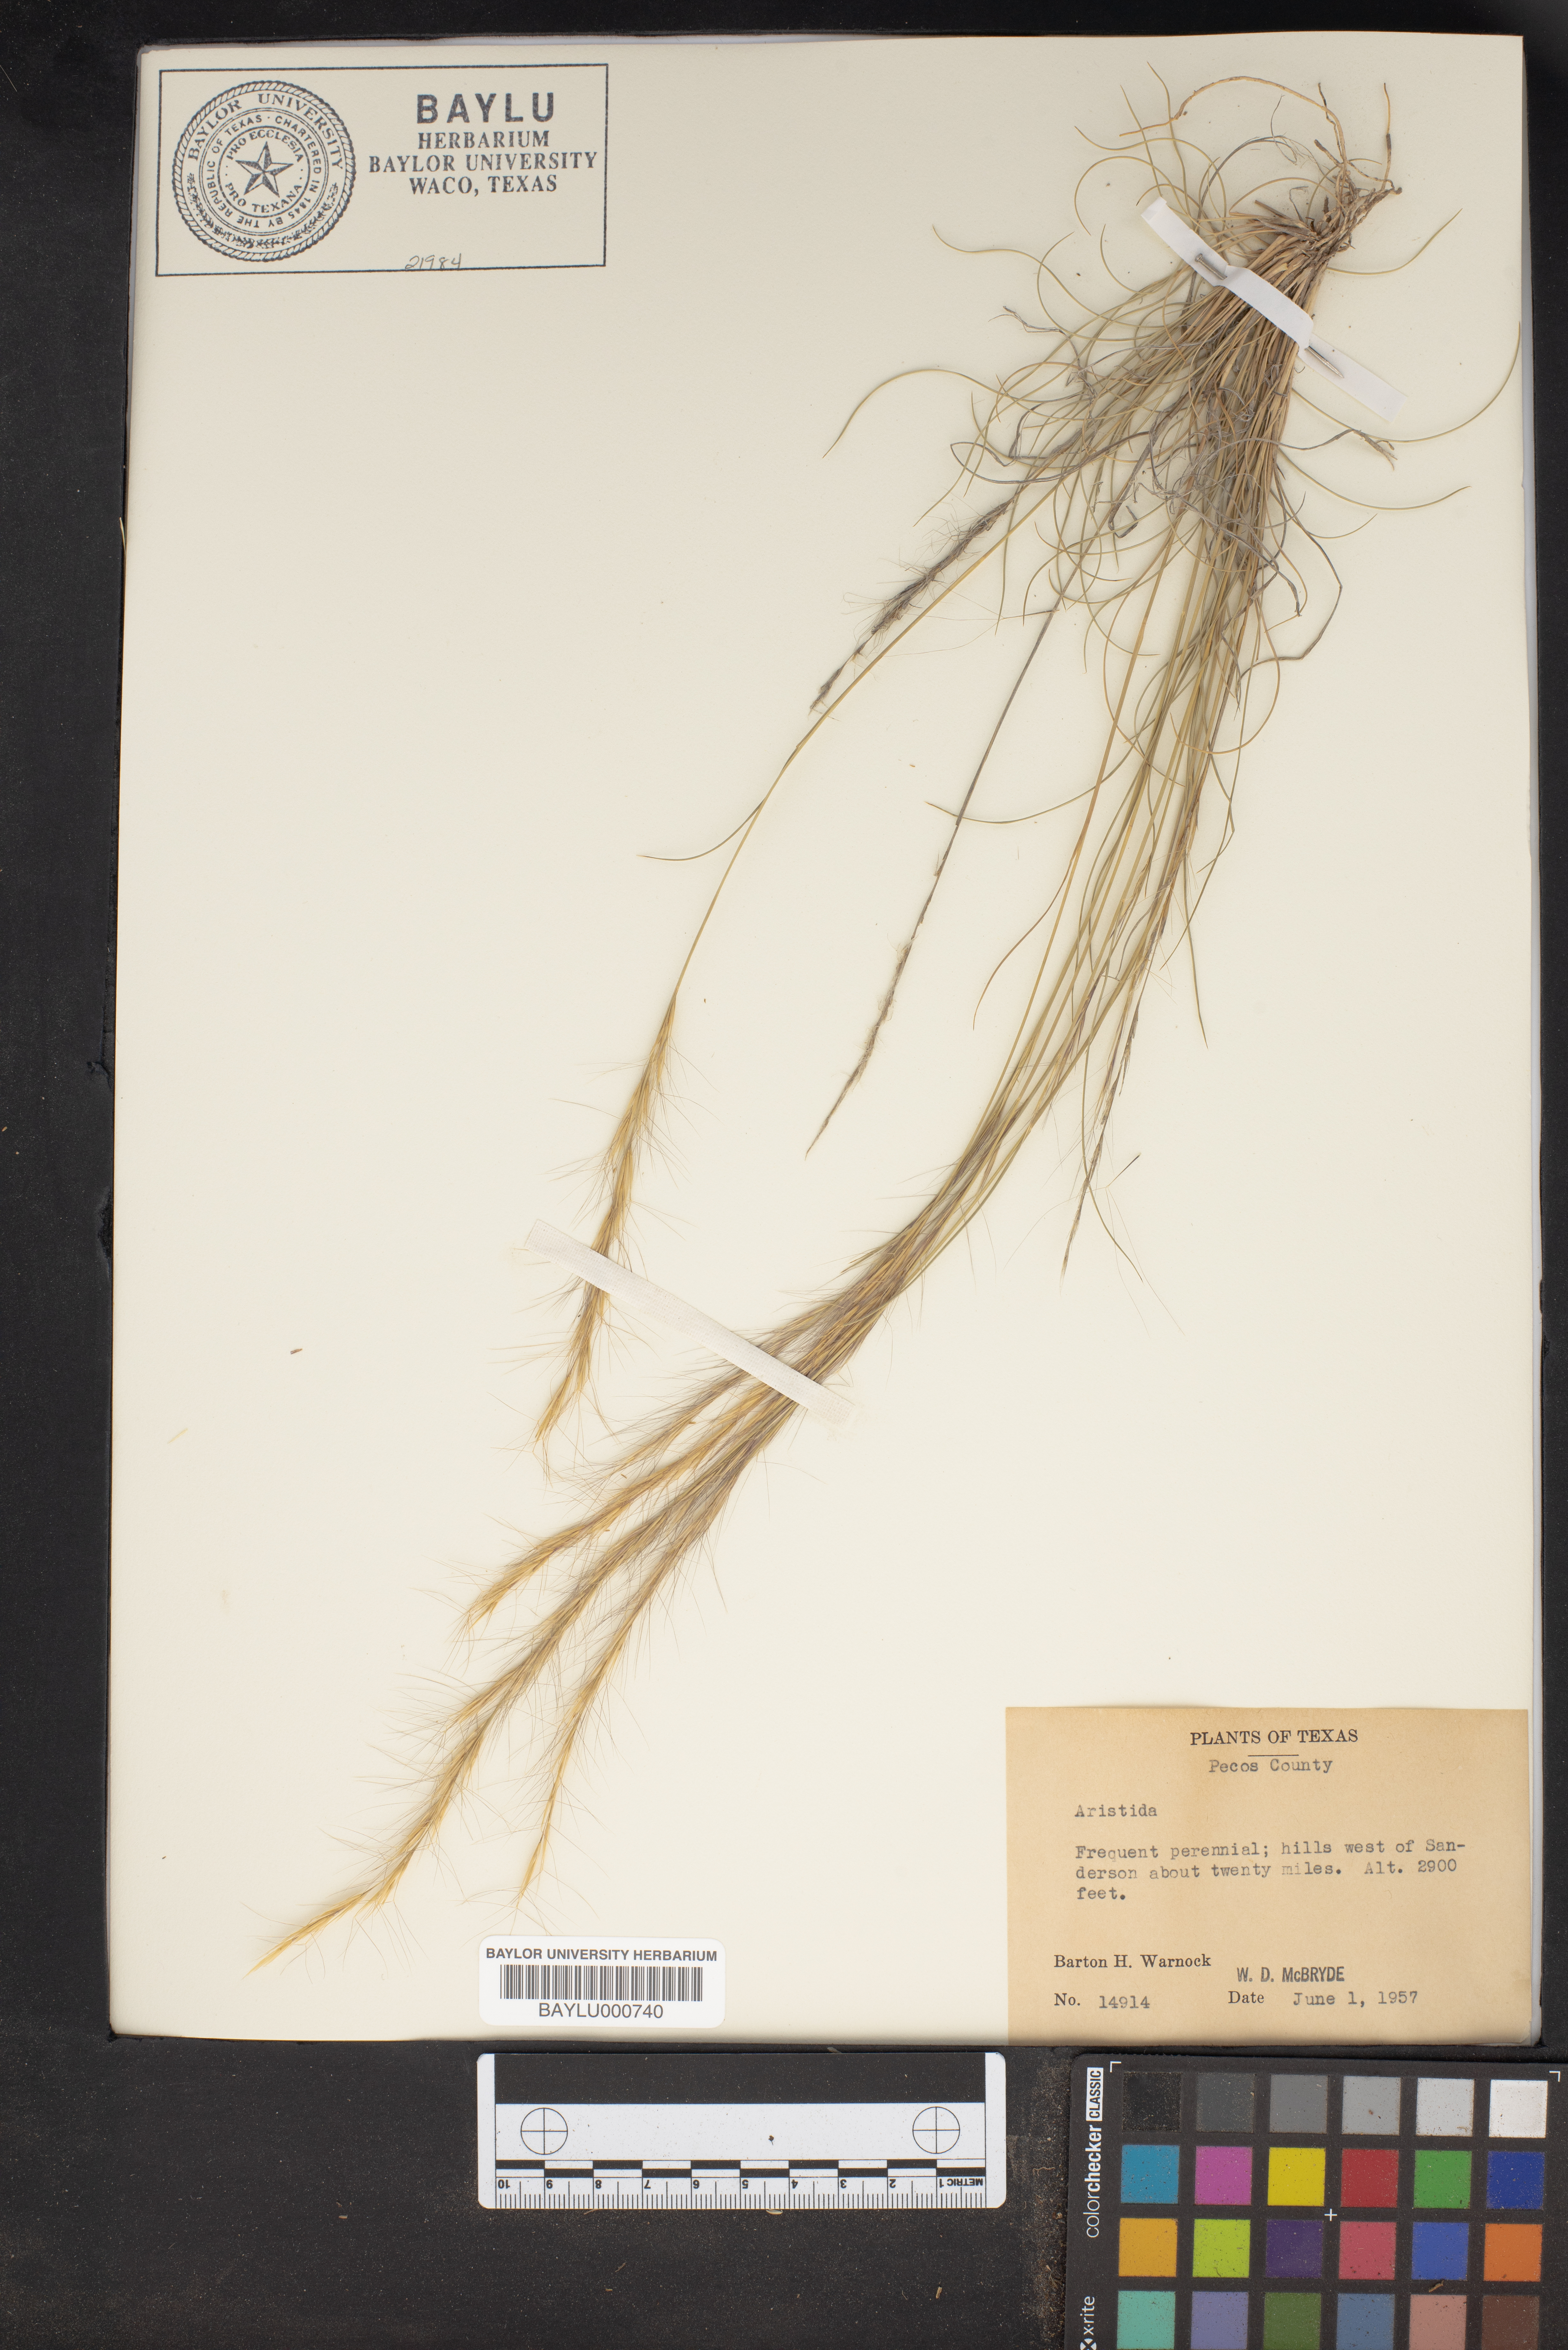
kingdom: Plantae
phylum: Tracheophyta
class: Liliopsida
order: Poales
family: Poaceae
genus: Aristida
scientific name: Aristida
